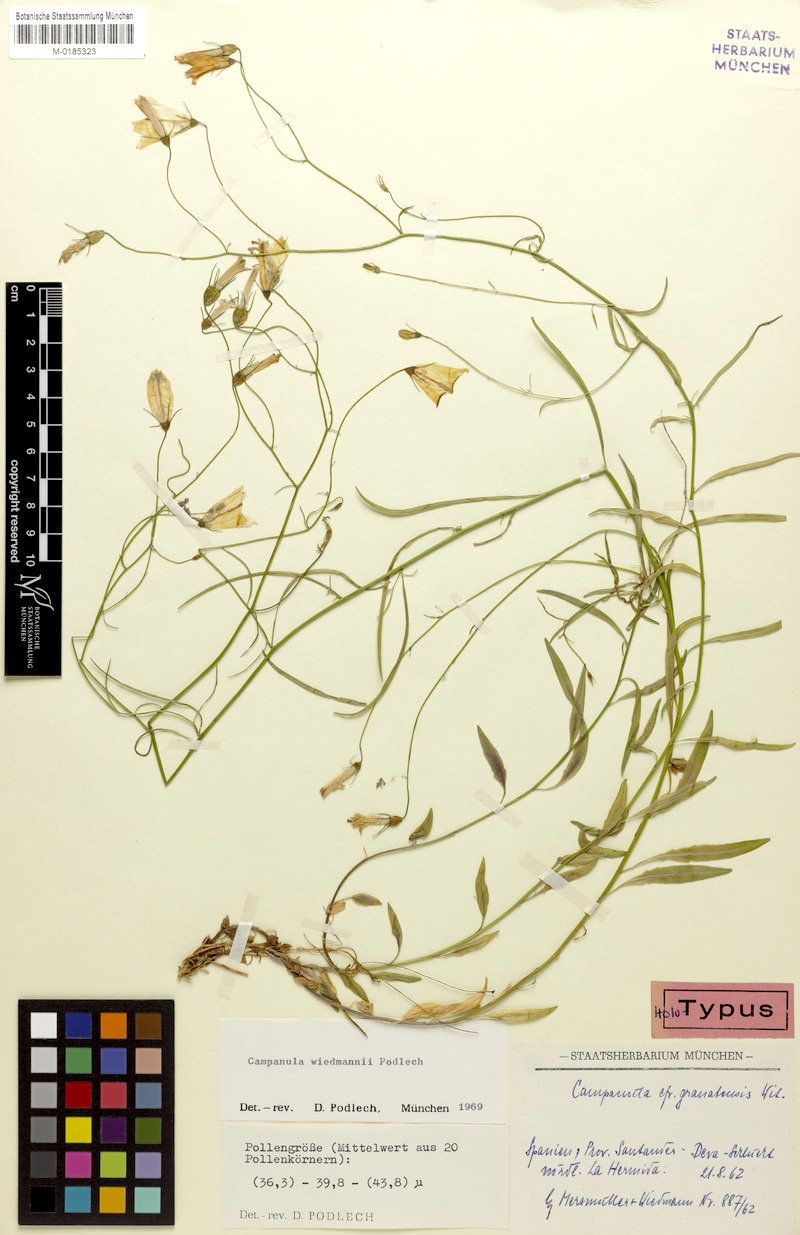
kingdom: Plantae
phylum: Tracheophyta
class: Magnoliopsida
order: Asterales
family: Campanulaceae
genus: Campanula
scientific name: Campanula rotundifolia
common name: Harebell
